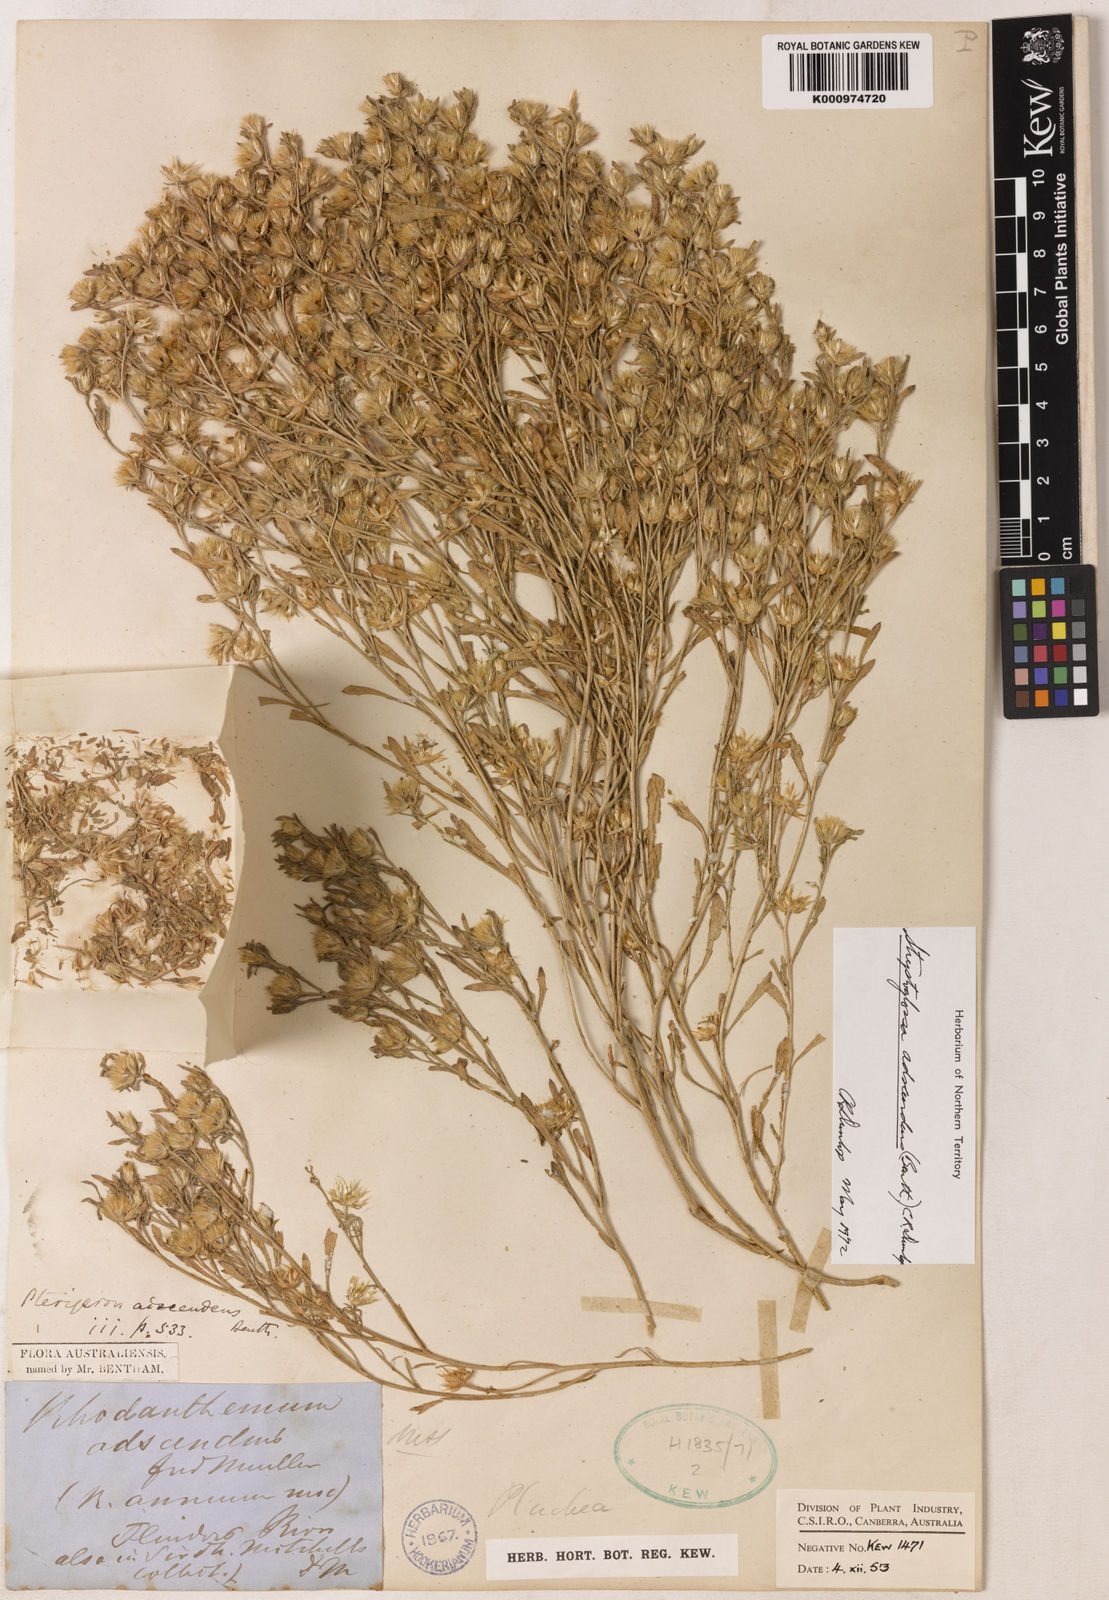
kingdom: Plantae
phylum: Tracheophyta
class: Magnoliopsida
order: Asterales
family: Asteraceae
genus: Streptoglossa
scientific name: Streptoglossa adscendens
